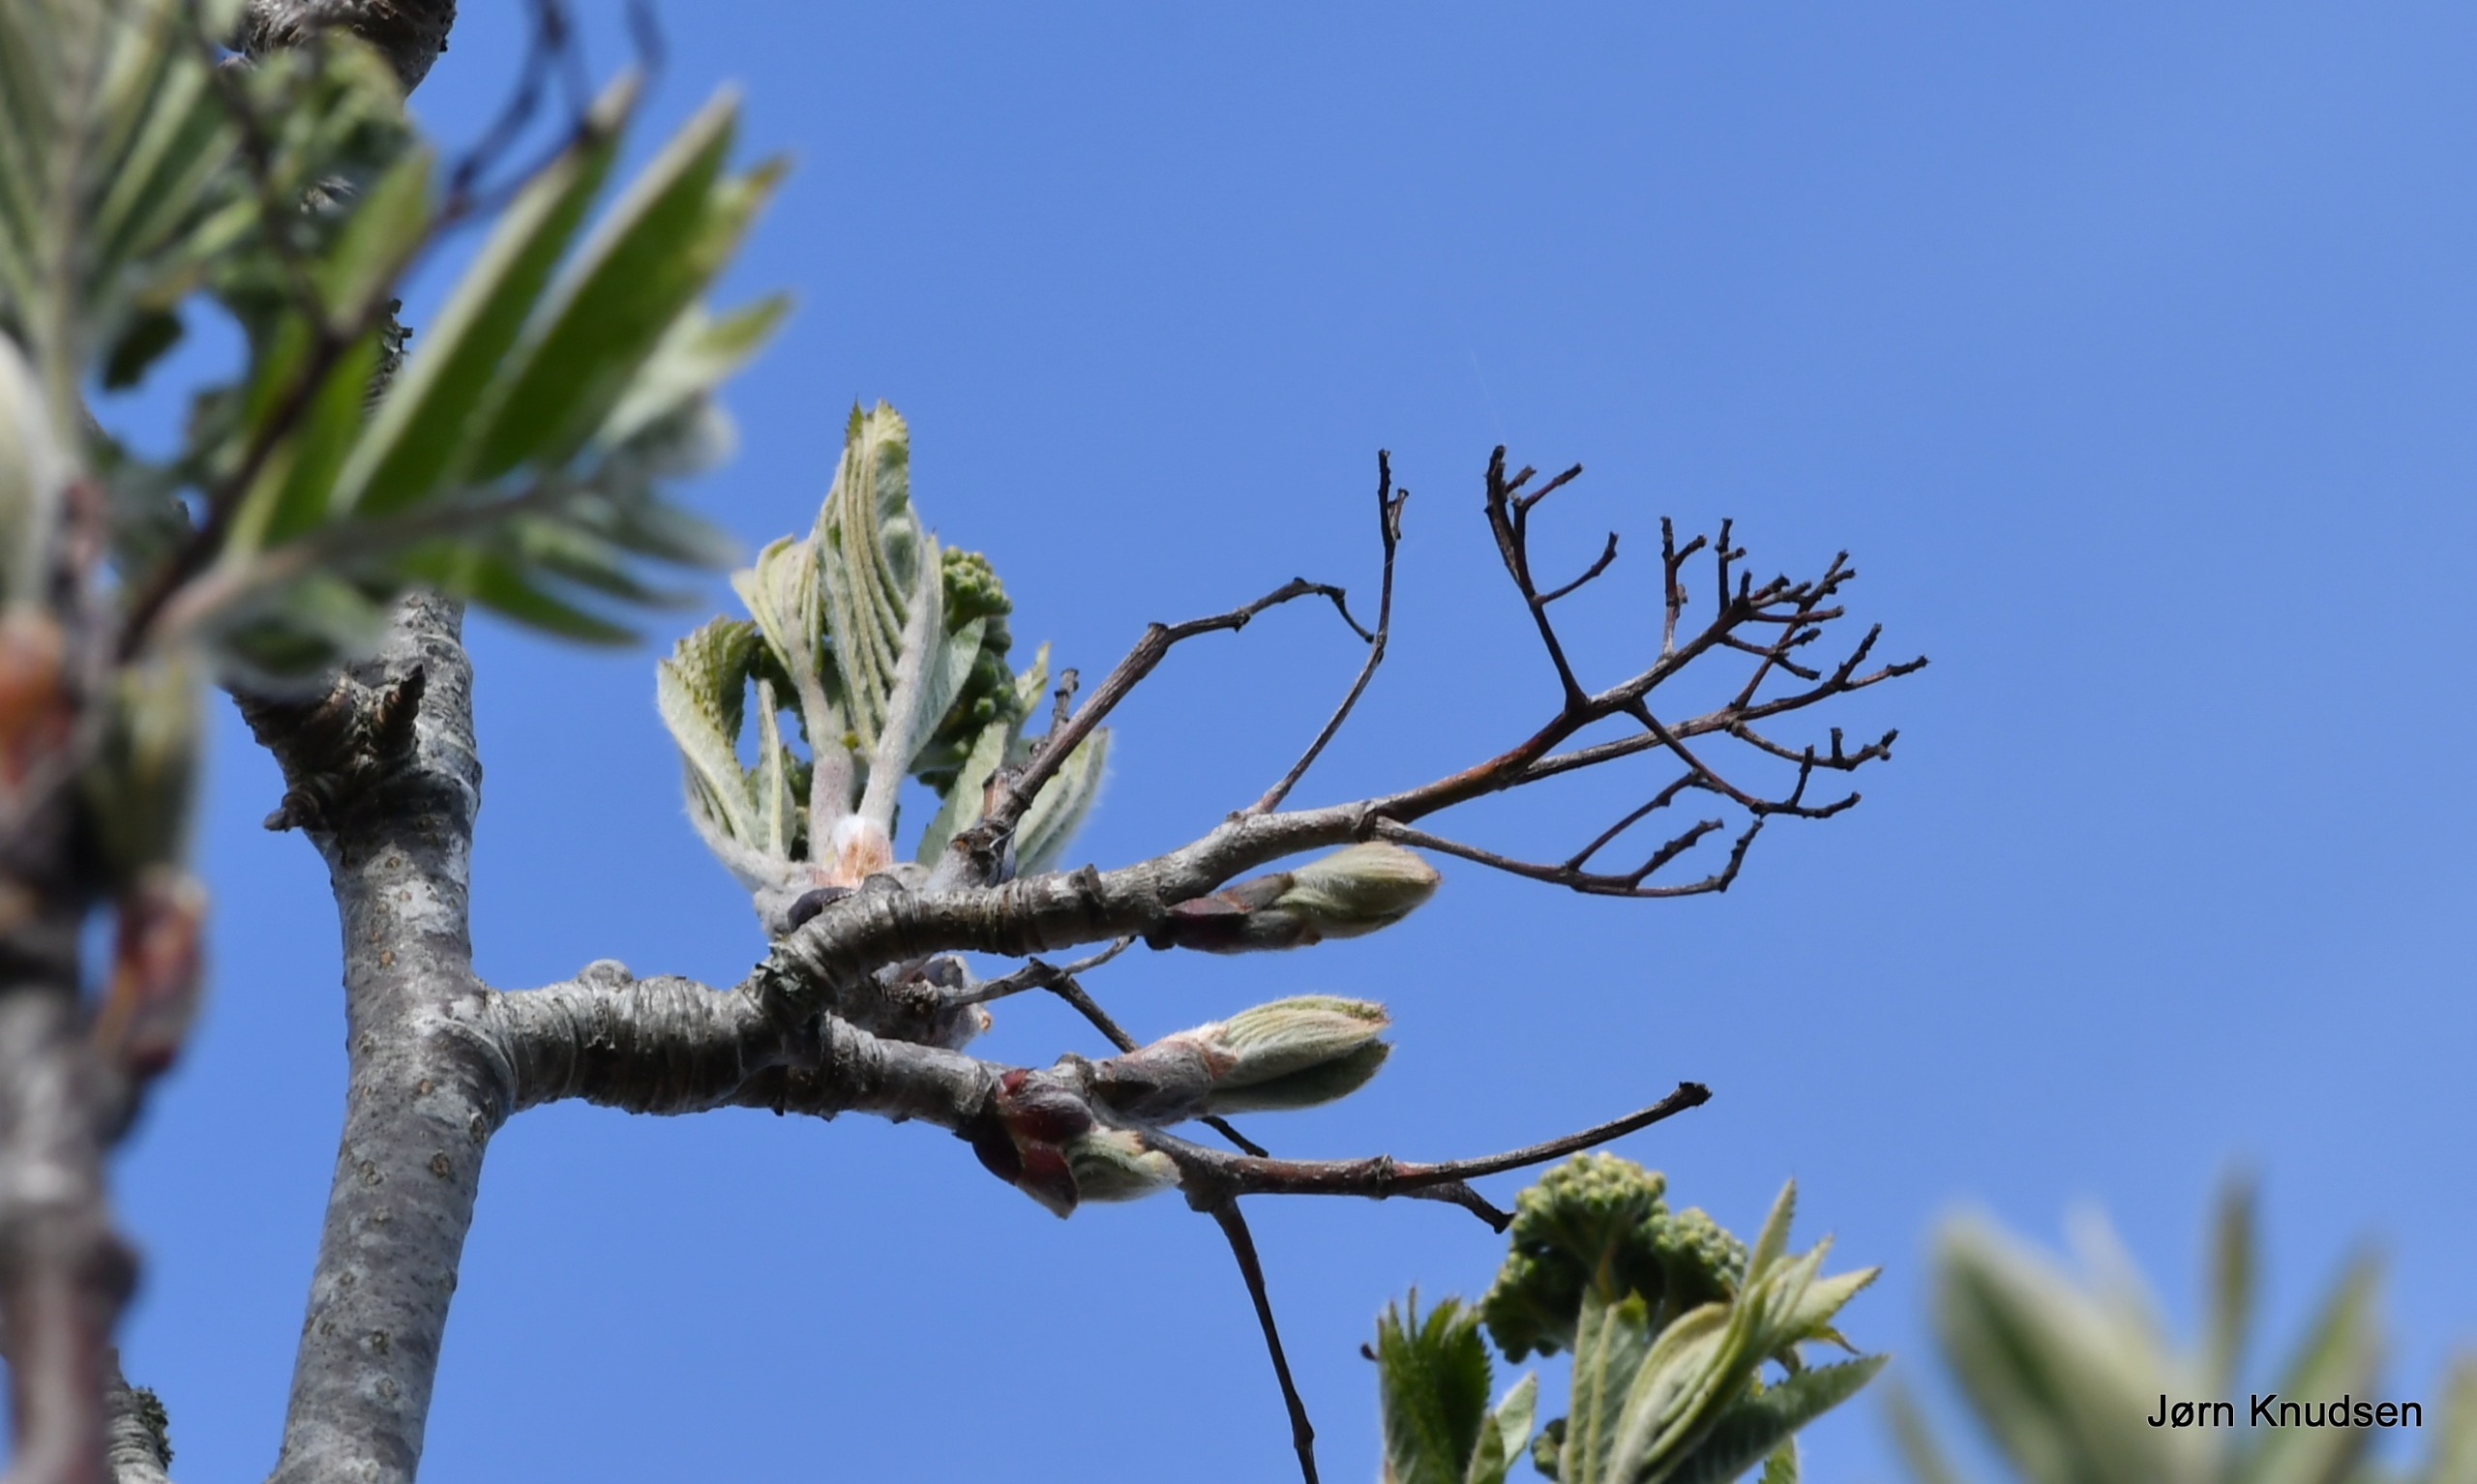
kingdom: Plantae
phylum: Tracheophyta
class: Magnoliopsida
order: Rosales
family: Rosaceae
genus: Sorbus
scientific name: Sorbus aucuparia
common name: Almindelig røn
